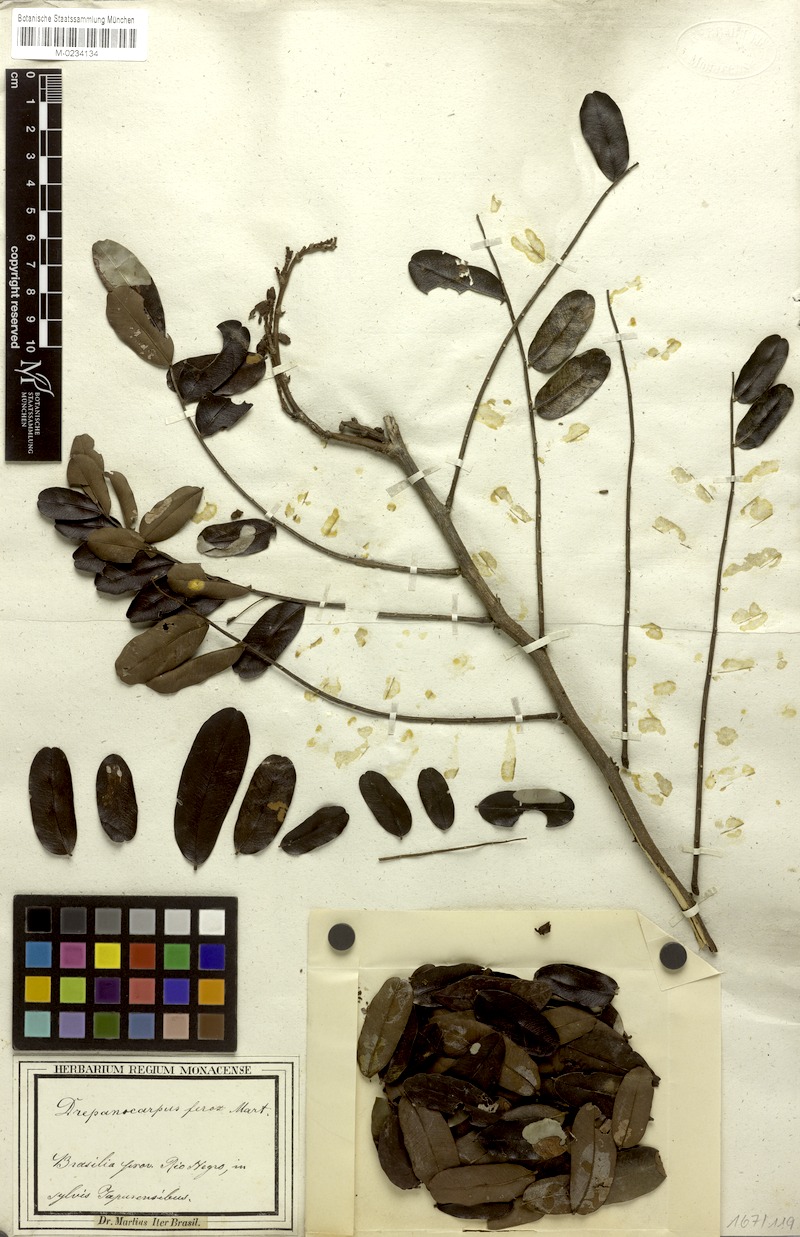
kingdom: Plantae
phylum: Tracheophyta
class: Magnoliopsida
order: Fabales
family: Fabaceae
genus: Machaerium
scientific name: Machaerium ferox
